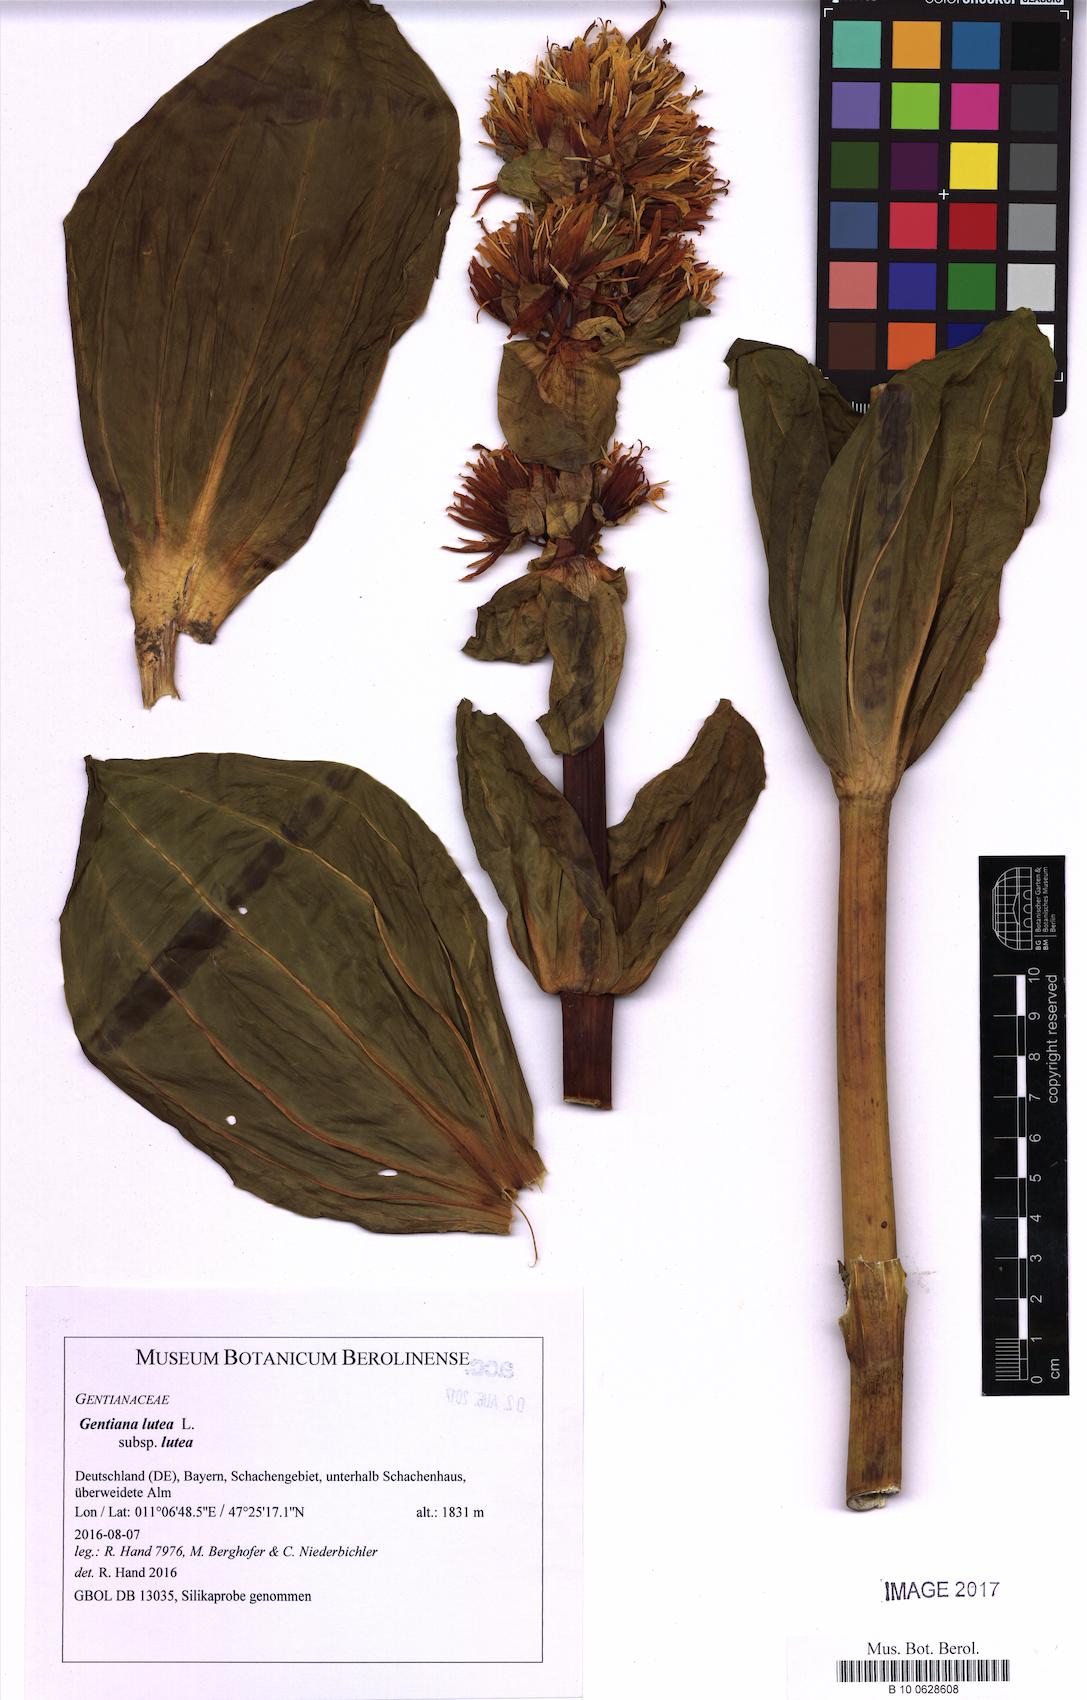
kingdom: Plantae
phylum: Tracheophyta
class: Magnoliopsida
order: Gentianales
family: Gentianaceae
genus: Gentiana
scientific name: Gentiana lutea
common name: Great yellow gentian
